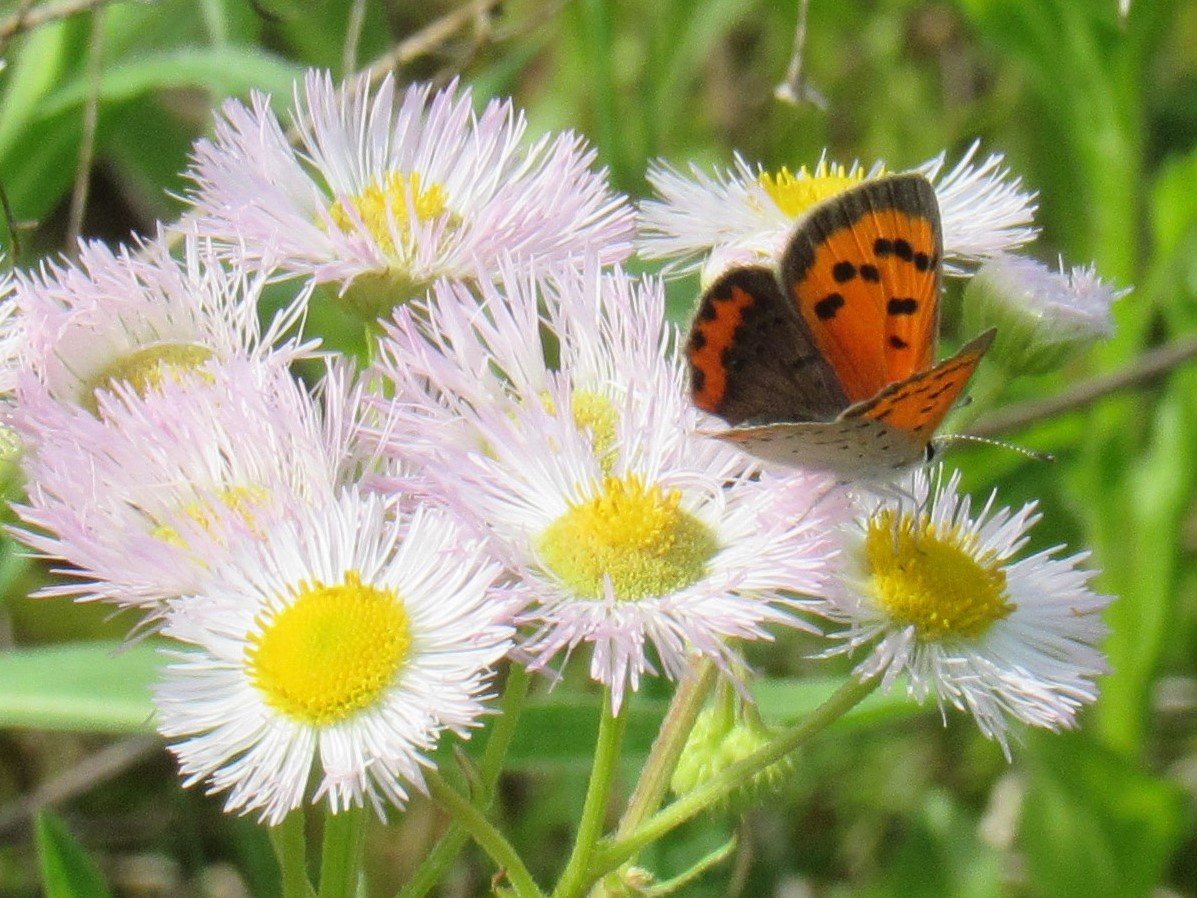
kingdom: Animalia
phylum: Arthropoda
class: Insecta
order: Lepidoptera
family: Lycaenidae
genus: Lycaena
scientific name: Lycaena phlaeas
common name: American Copper
